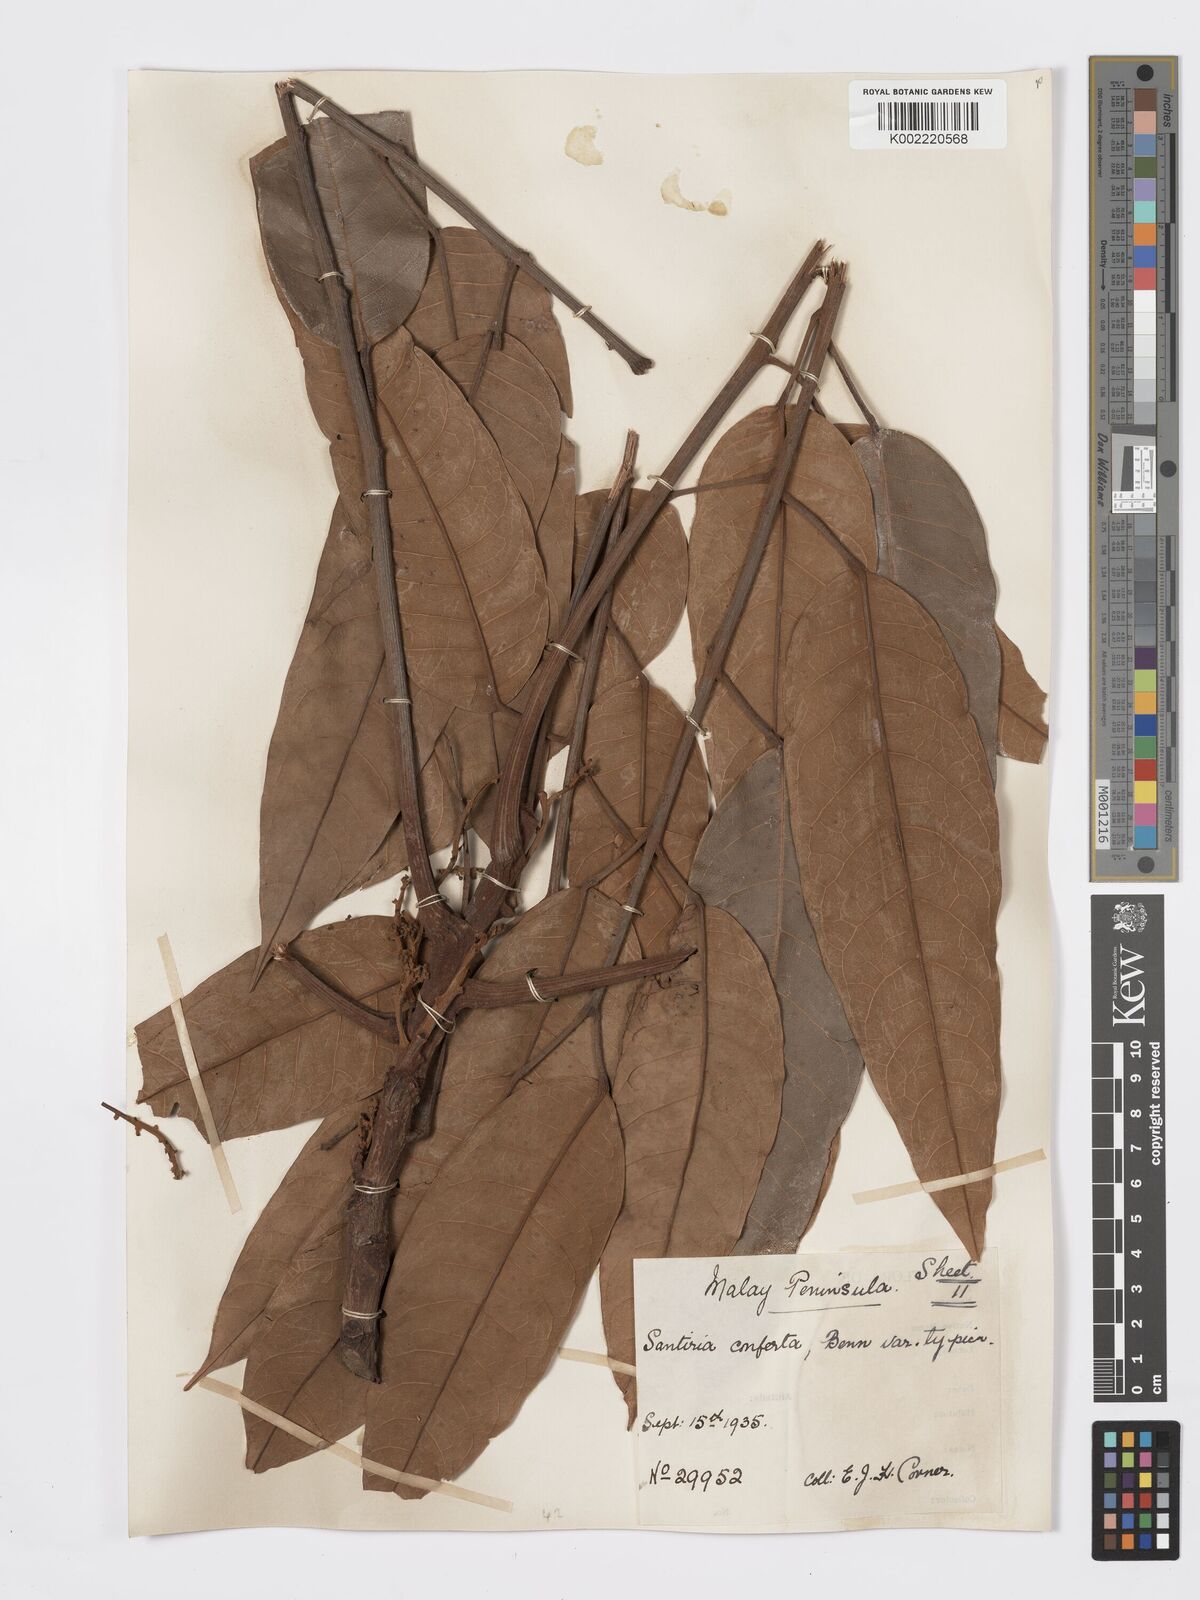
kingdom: Plantae
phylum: Tracheophyta
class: Magnoliopsida
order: Sapindales
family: Burseraceae
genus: Santiria
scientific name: Santiria conferta
